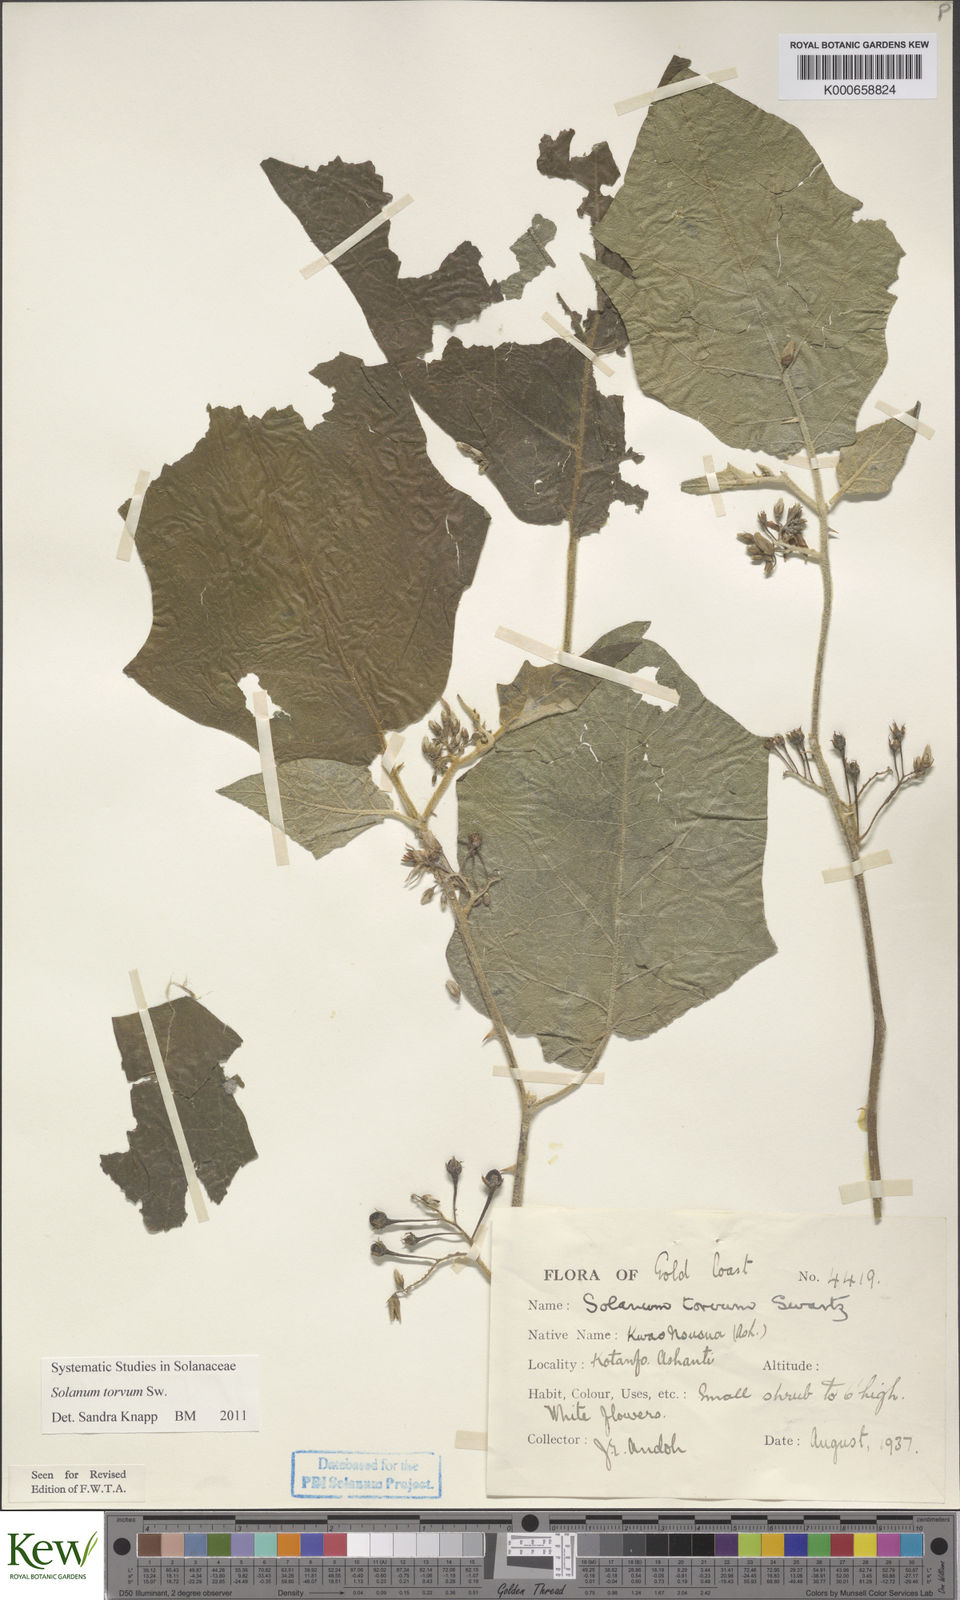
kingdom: Plantae
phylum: Tracheophyta
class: Magnoliopsida
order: Solanales
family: Solanaceae
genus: Solanum
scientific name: Solanum torvum
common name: Turkey berry
